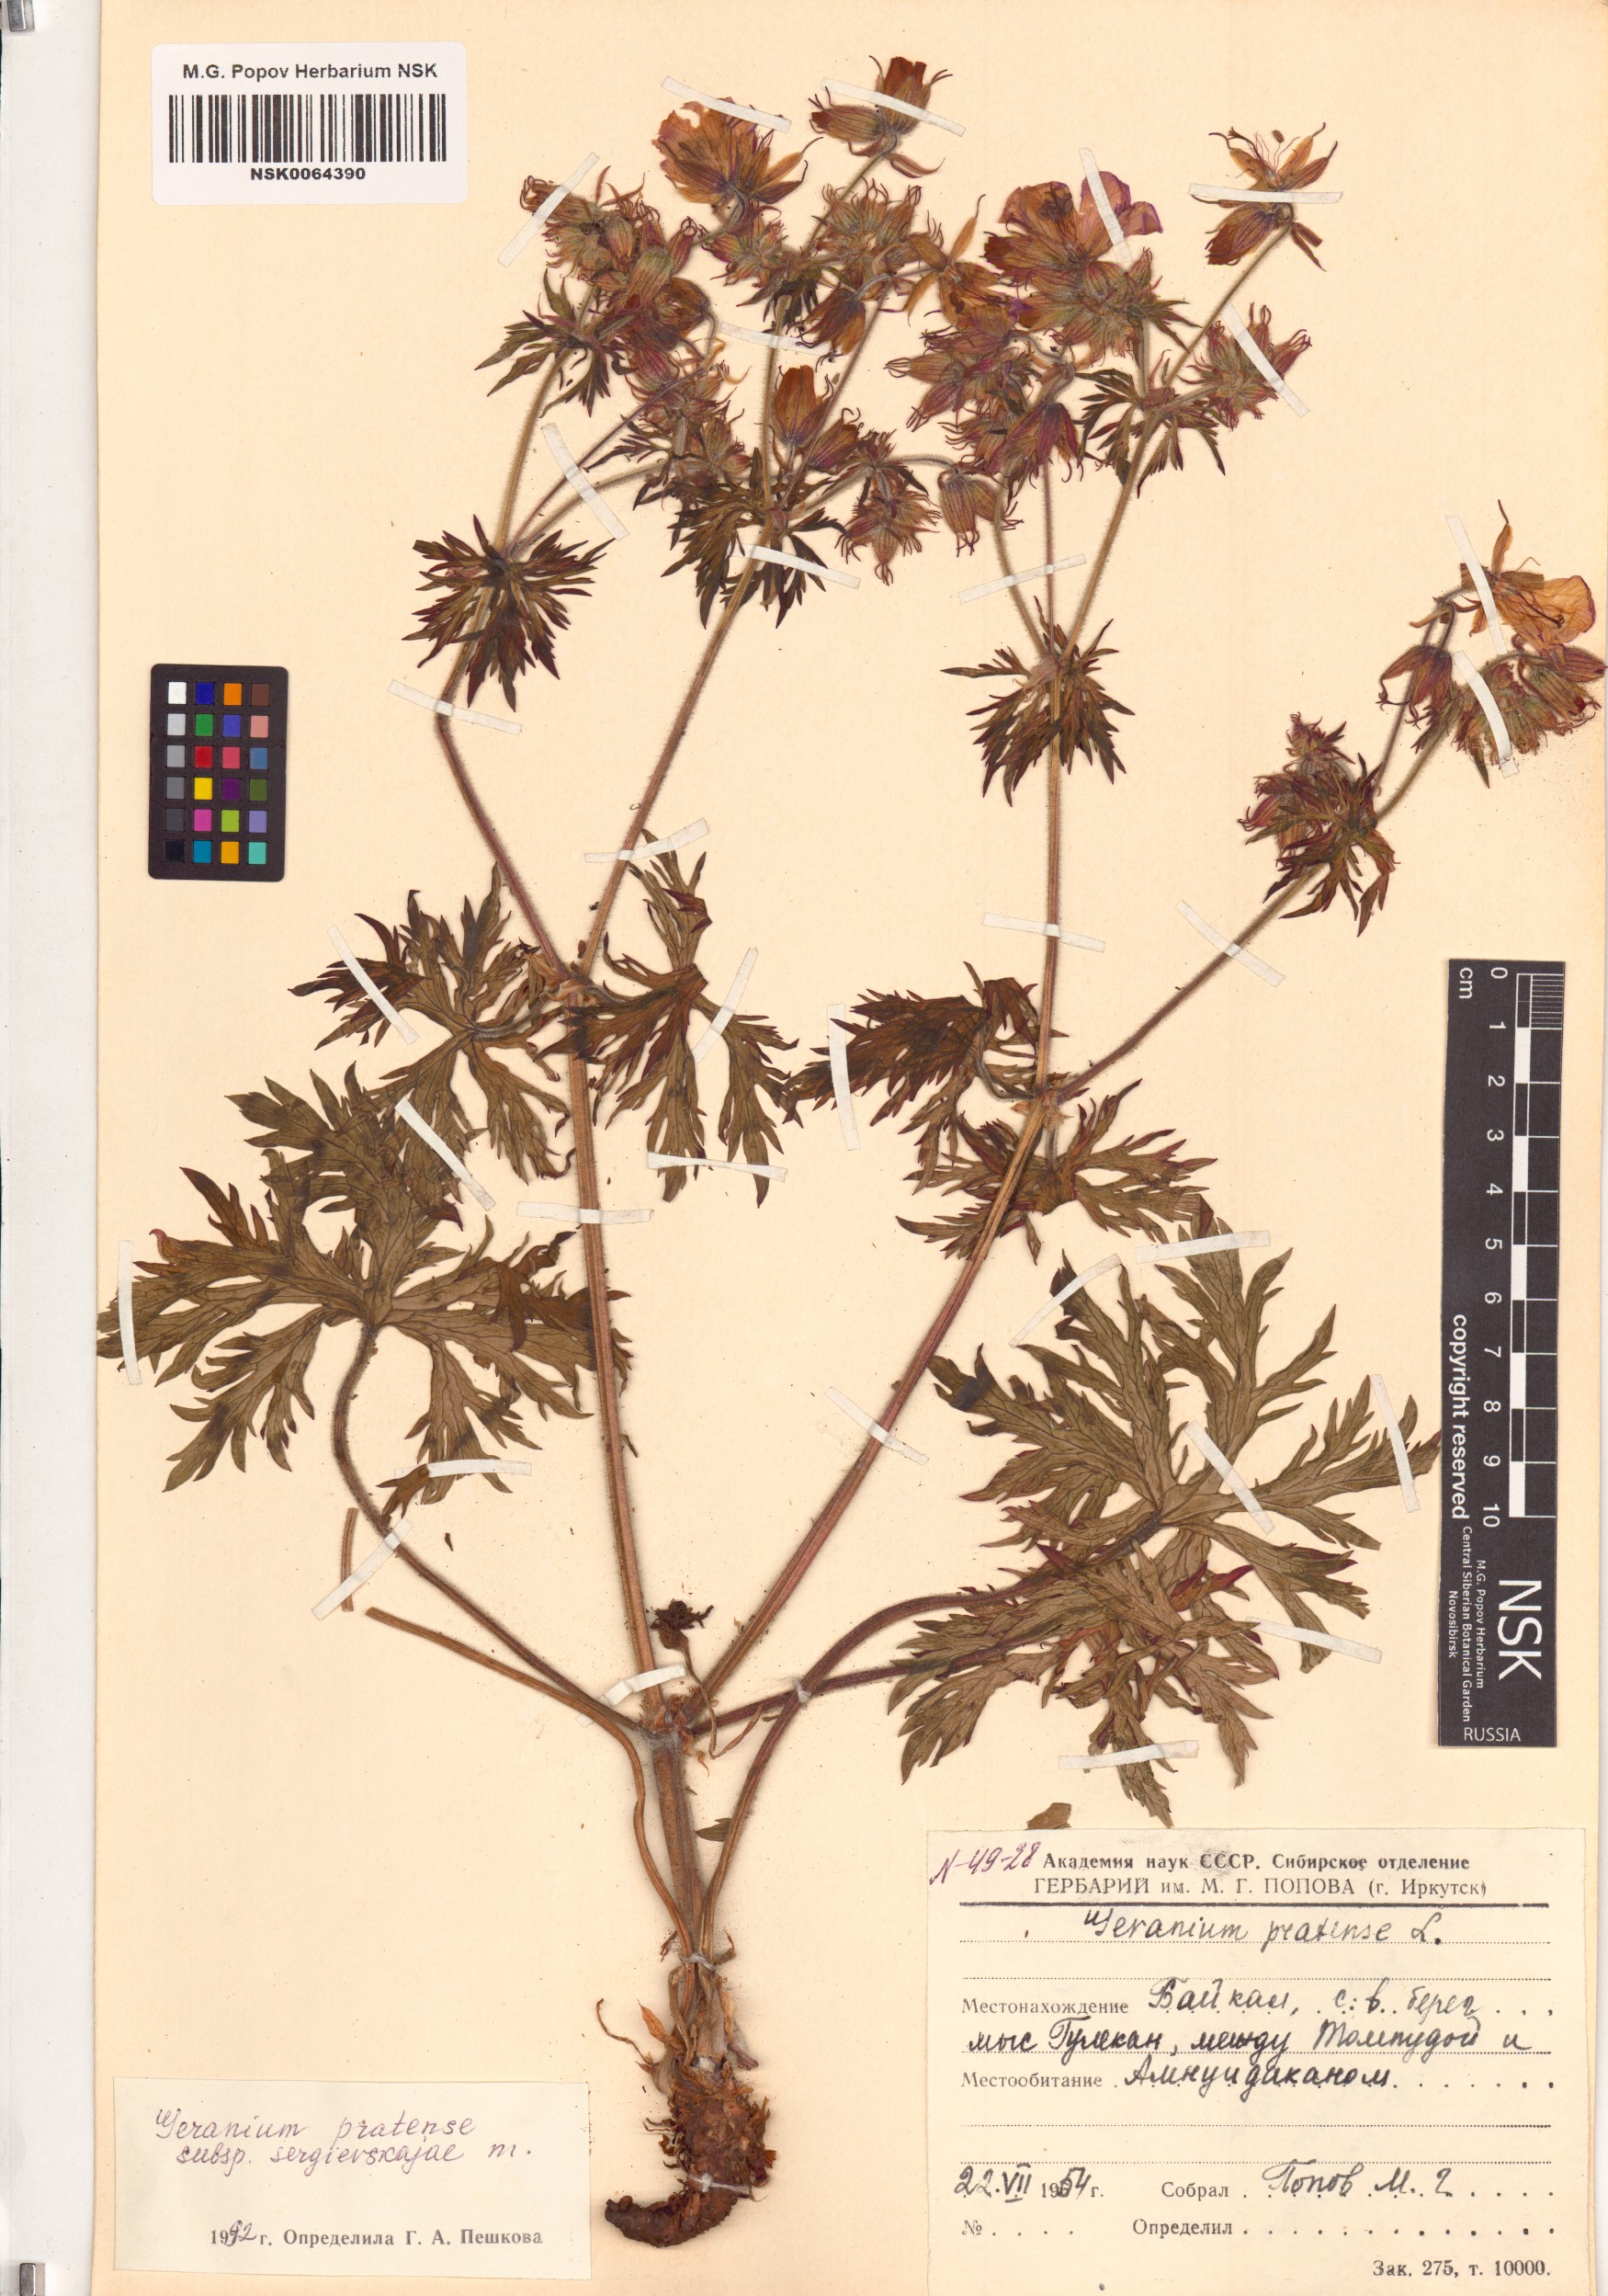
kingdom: Plantae
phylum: Tracheophyta
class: Magnoliopsida
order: Geraniales
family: Geraniaceae
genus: Geranium
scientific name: Geranium pratense
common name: Meadow crane's-bill
